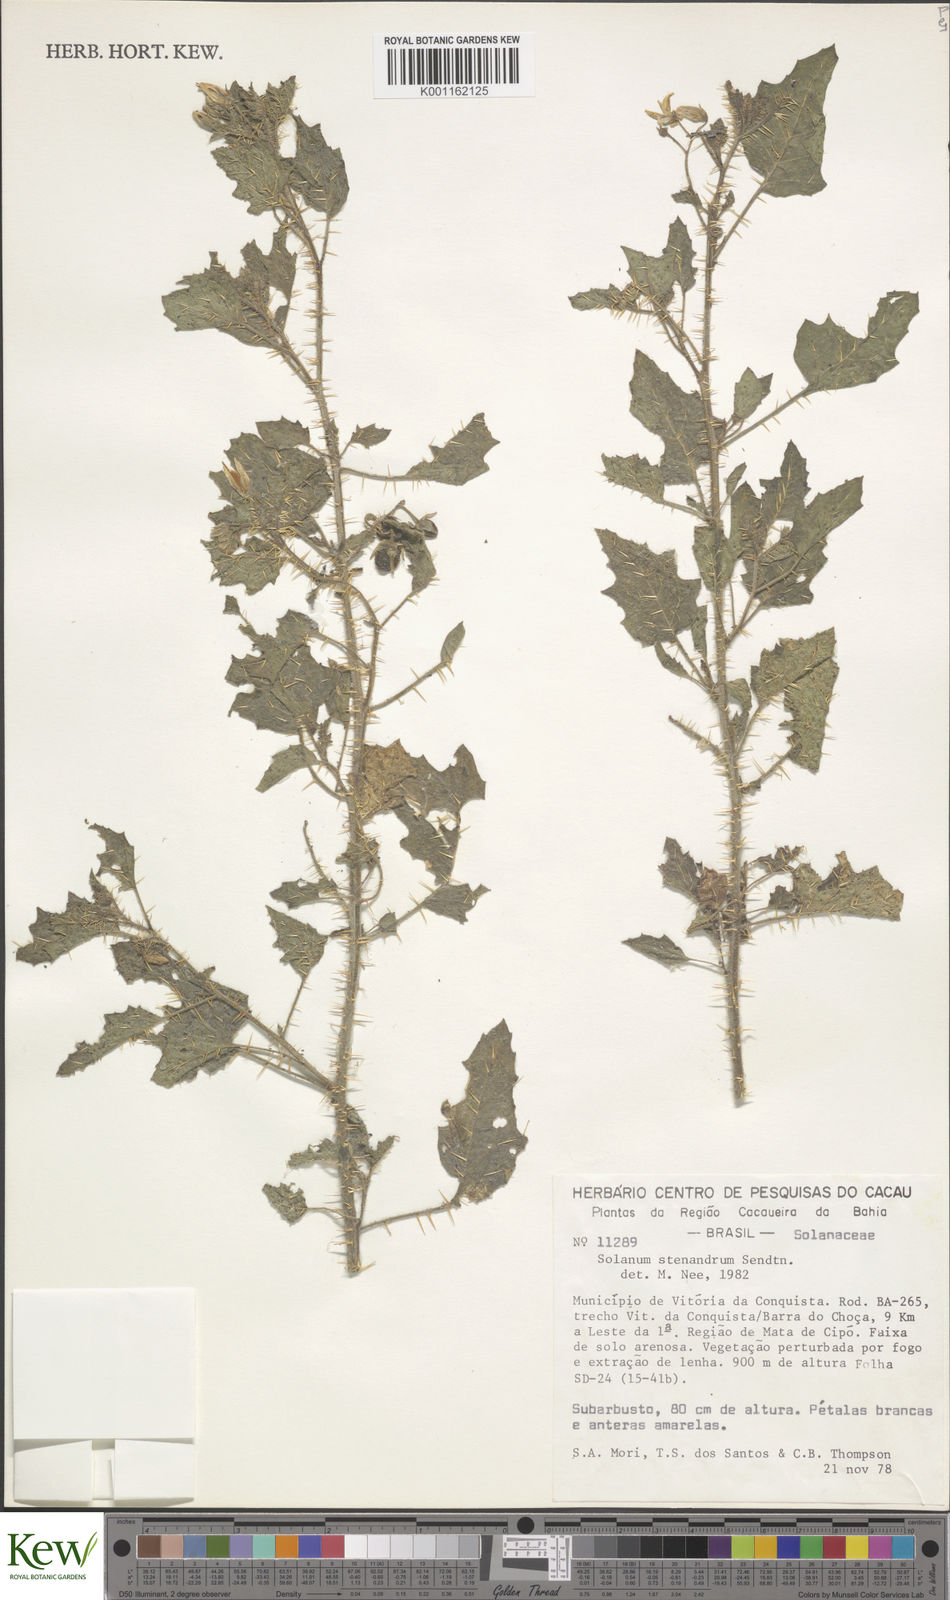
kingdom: Plantae
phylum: Tracheophyta
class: Magnoliopsida
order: Solanales
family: Solanaceae
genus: Solanum
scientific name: Solanum stenandrum
